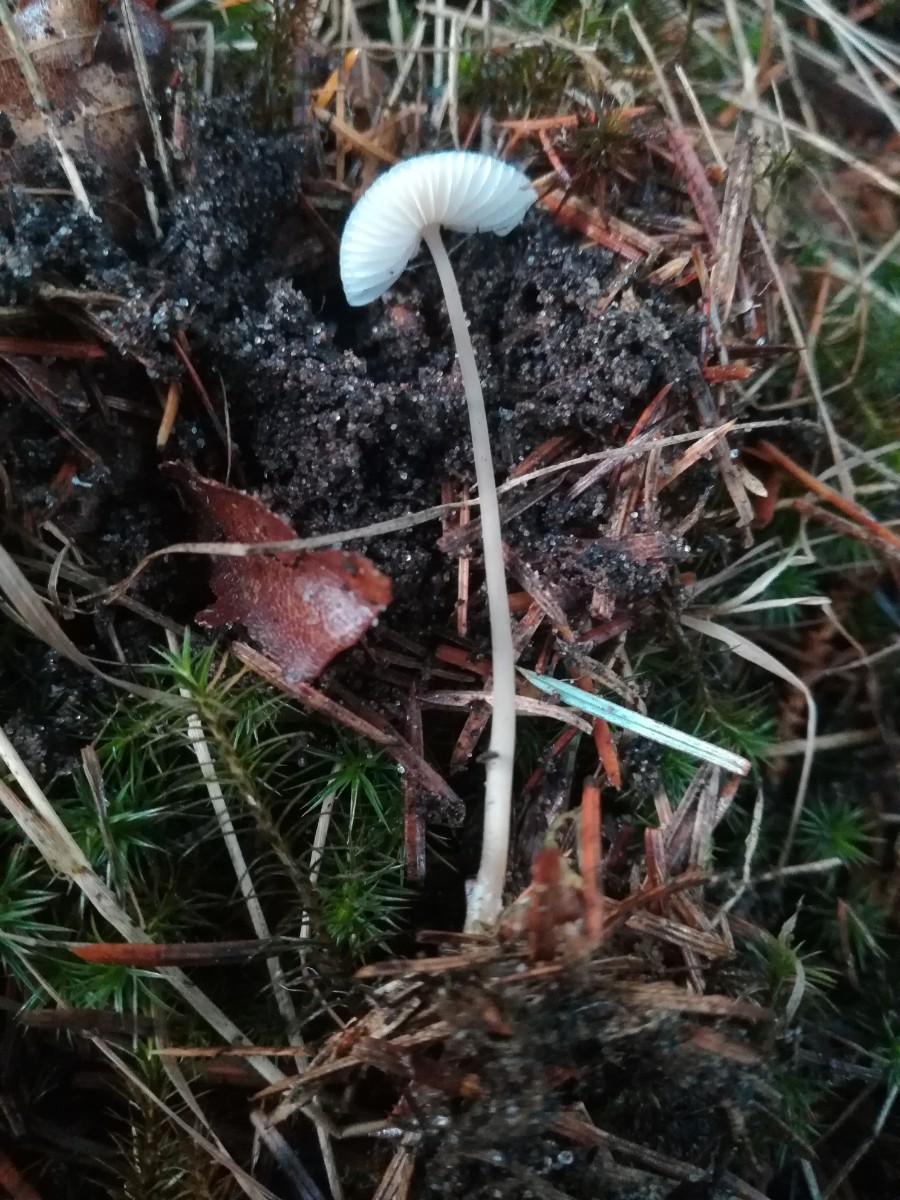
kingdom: Fungi
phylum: Basidiomycota
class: Agaricomycetes
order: Agaricales
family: Mycenaceae
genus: Mycena
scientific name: Mycena
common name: huesvamp
